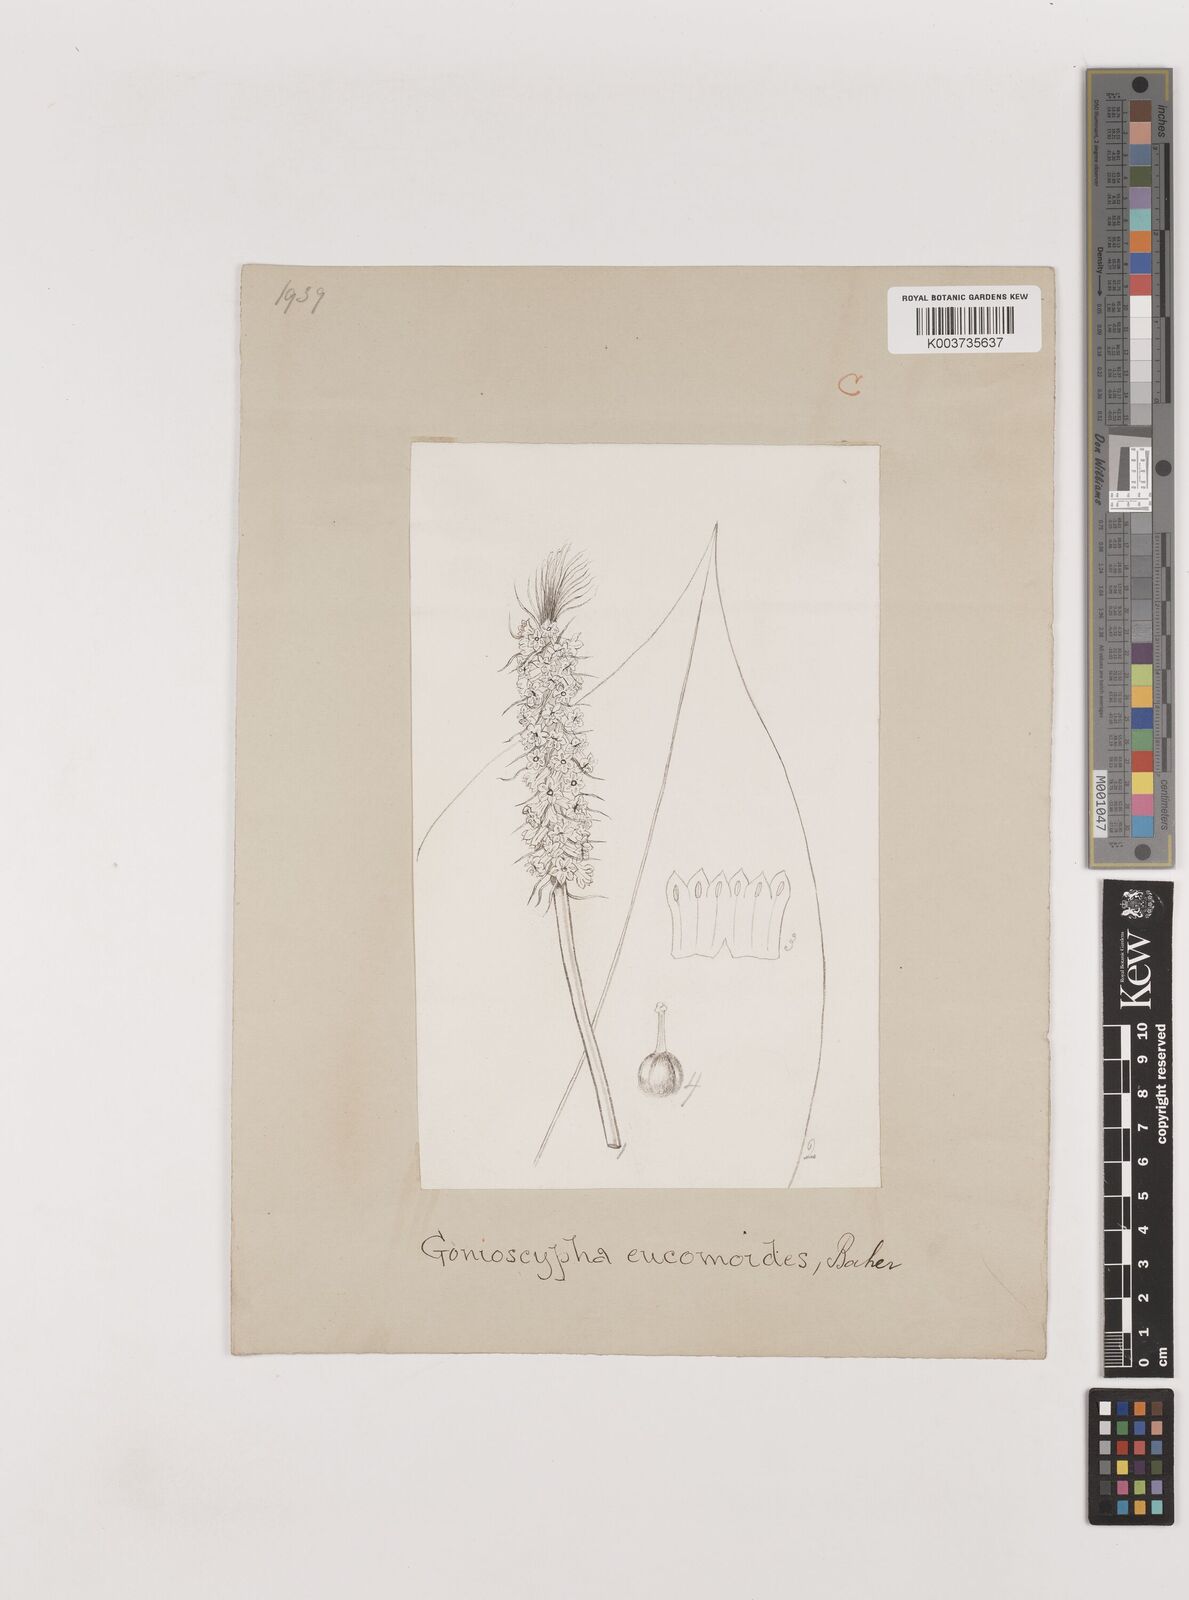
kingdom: Plantae
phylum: Tracheophyta
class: Liliopsida
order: Asparagales
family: Asparagaceae
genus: Rohdea
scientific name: Rohdea eucomoides
